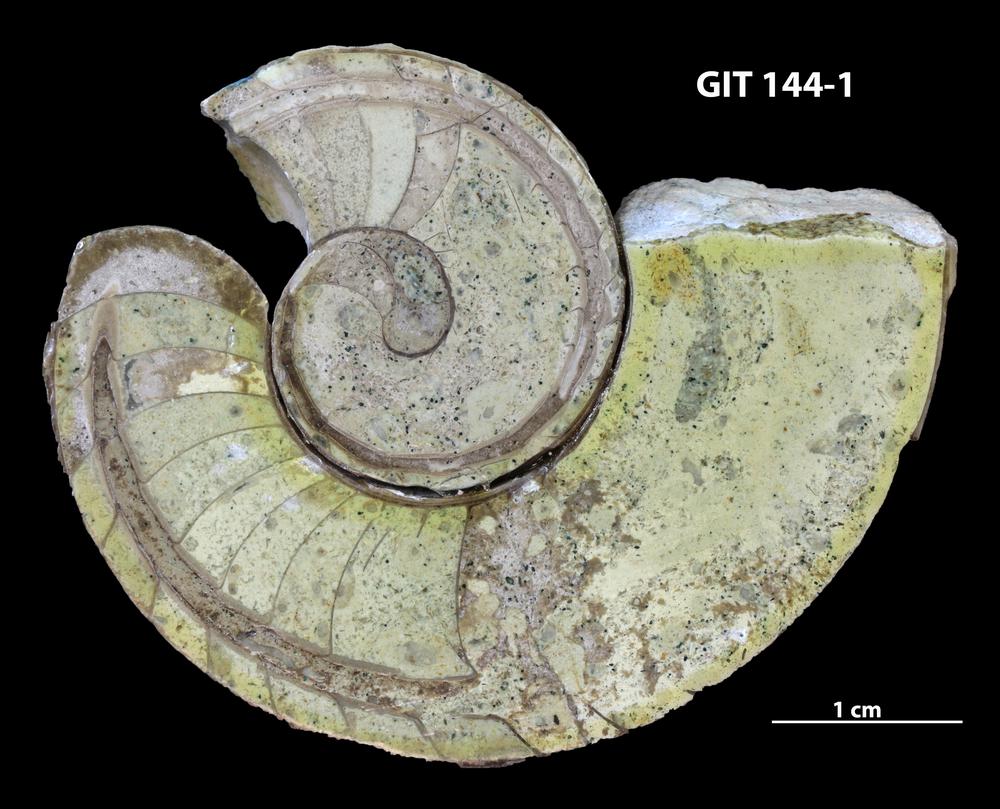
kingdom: Animalia
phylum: Mollusca
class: Cephalopoda
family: Lituitidae
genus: Lituites
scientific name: Lituites imperfectum
